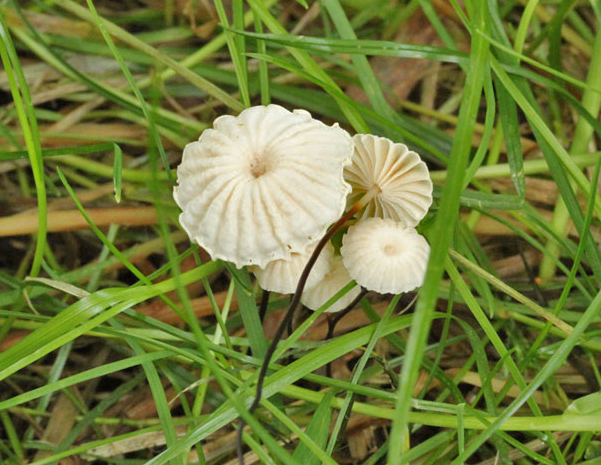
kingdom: Fungi
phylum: Basidiomycota
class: Agaricomycetes
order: Agaricales
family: Marasmiaceae
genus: Marasmius
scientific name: Marasmius rotula
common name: hjul-bruskhat
